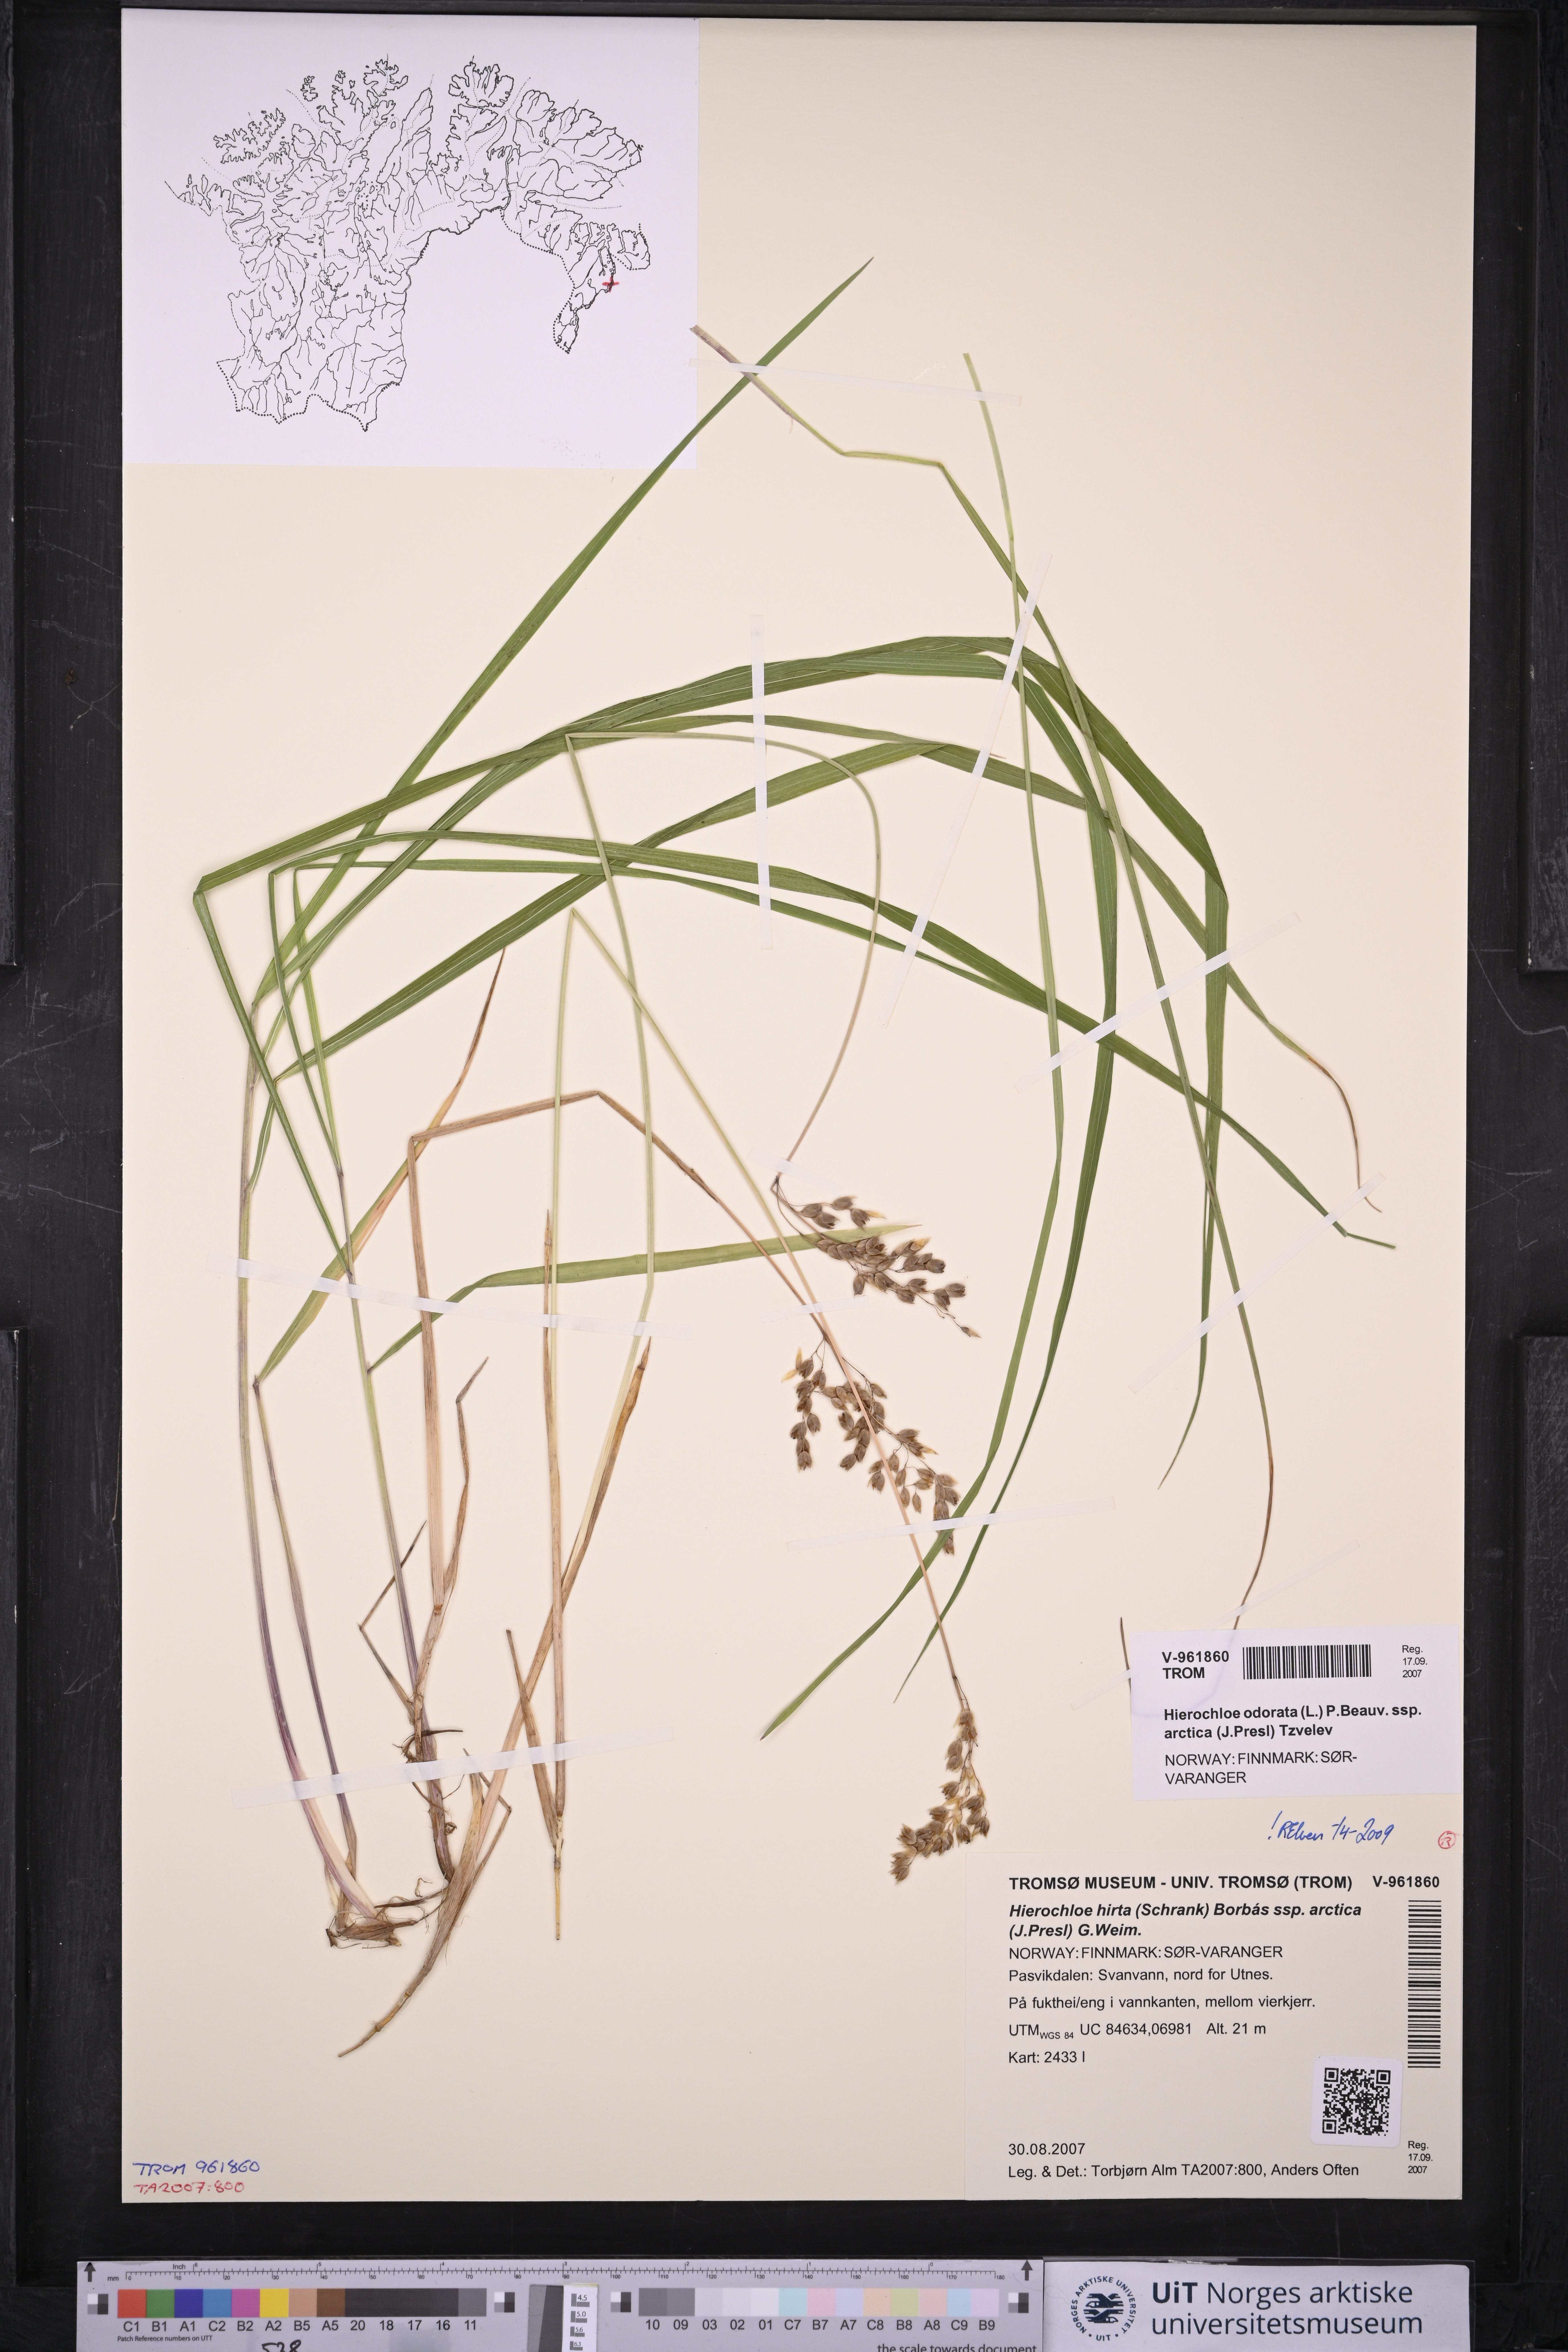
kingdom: Plantae
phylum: Tracheophyta
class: Liliopsida
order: Poales
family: Poaceae
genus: Anthoxanthum
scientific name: Anthoxanthum nitens
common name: Holy grass
